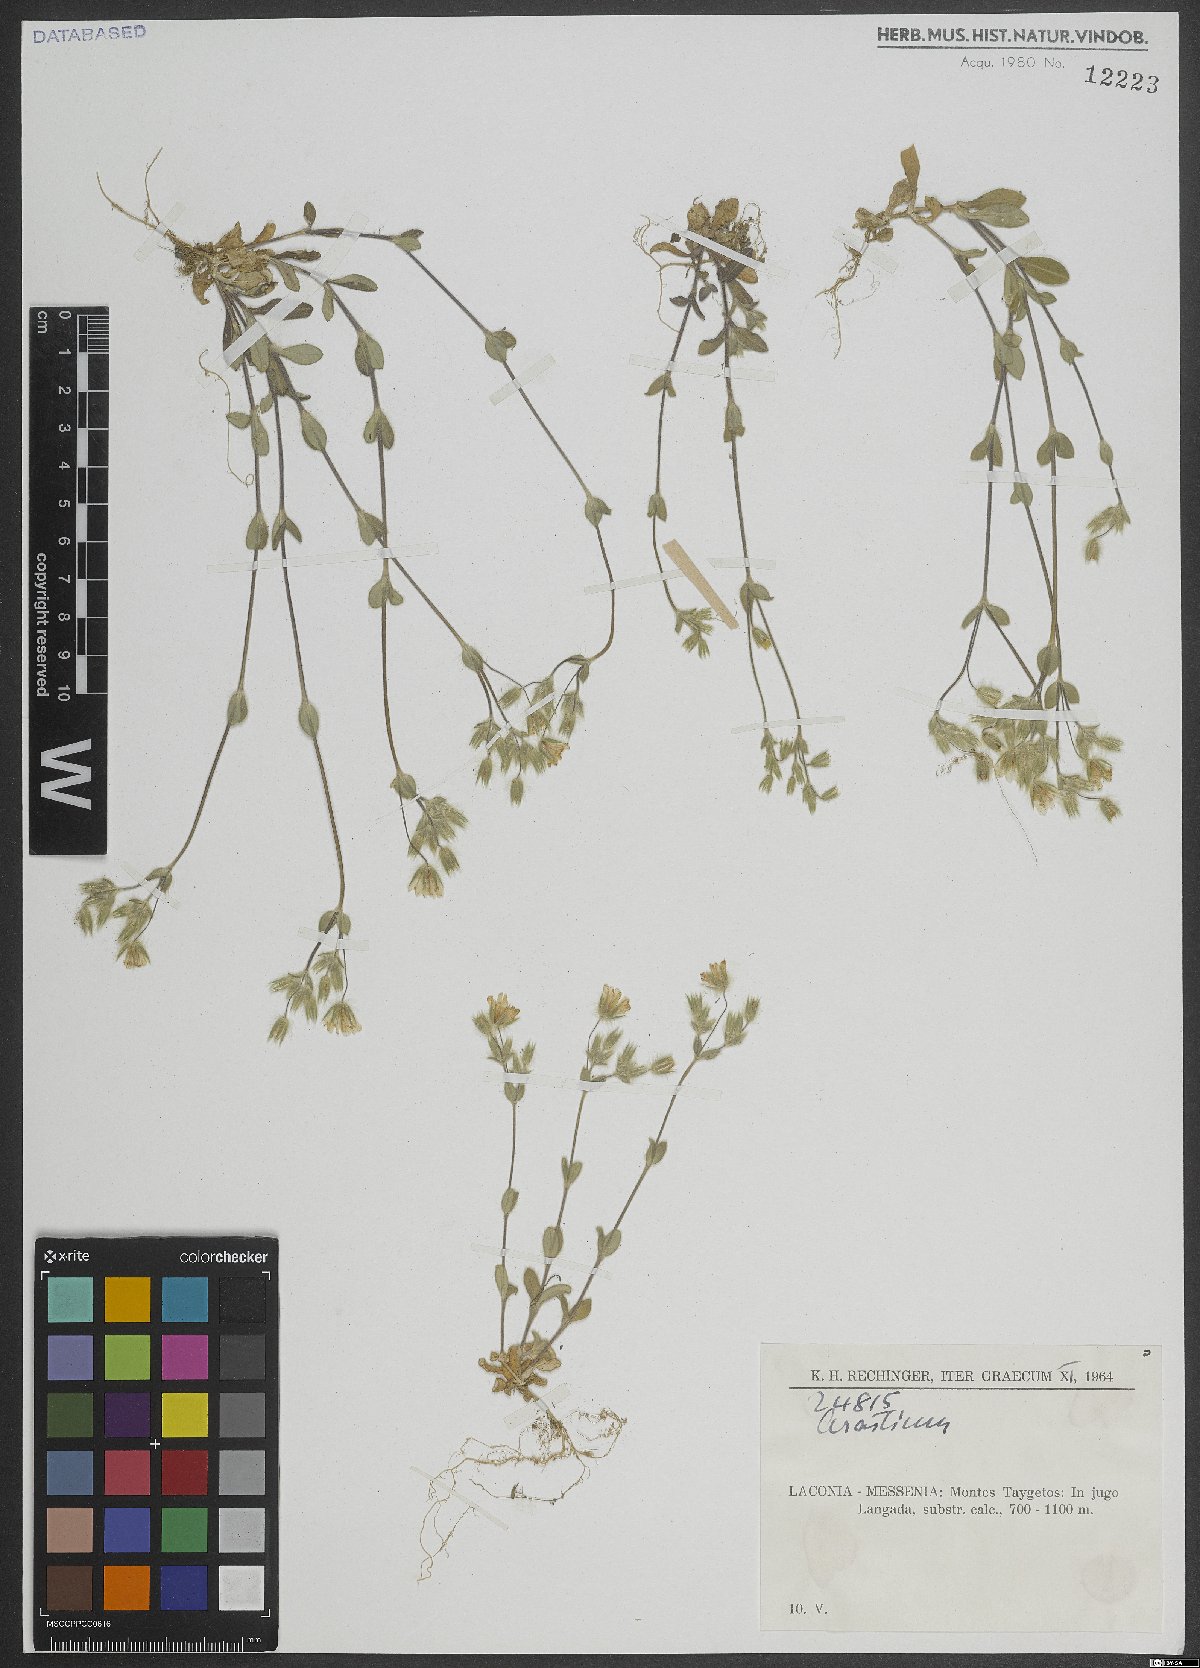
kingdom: Plantae
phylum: Tracheophyta
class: Magnoliopsida
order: Caryophyllales
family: Caryophyllaceae
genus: Cerastium
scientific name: Cerastium
